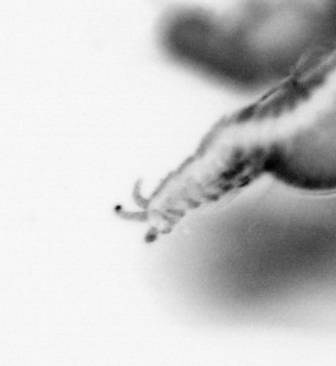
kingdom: Animalia
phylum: Annelida
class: Polychaeta
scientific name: Polychaeta
